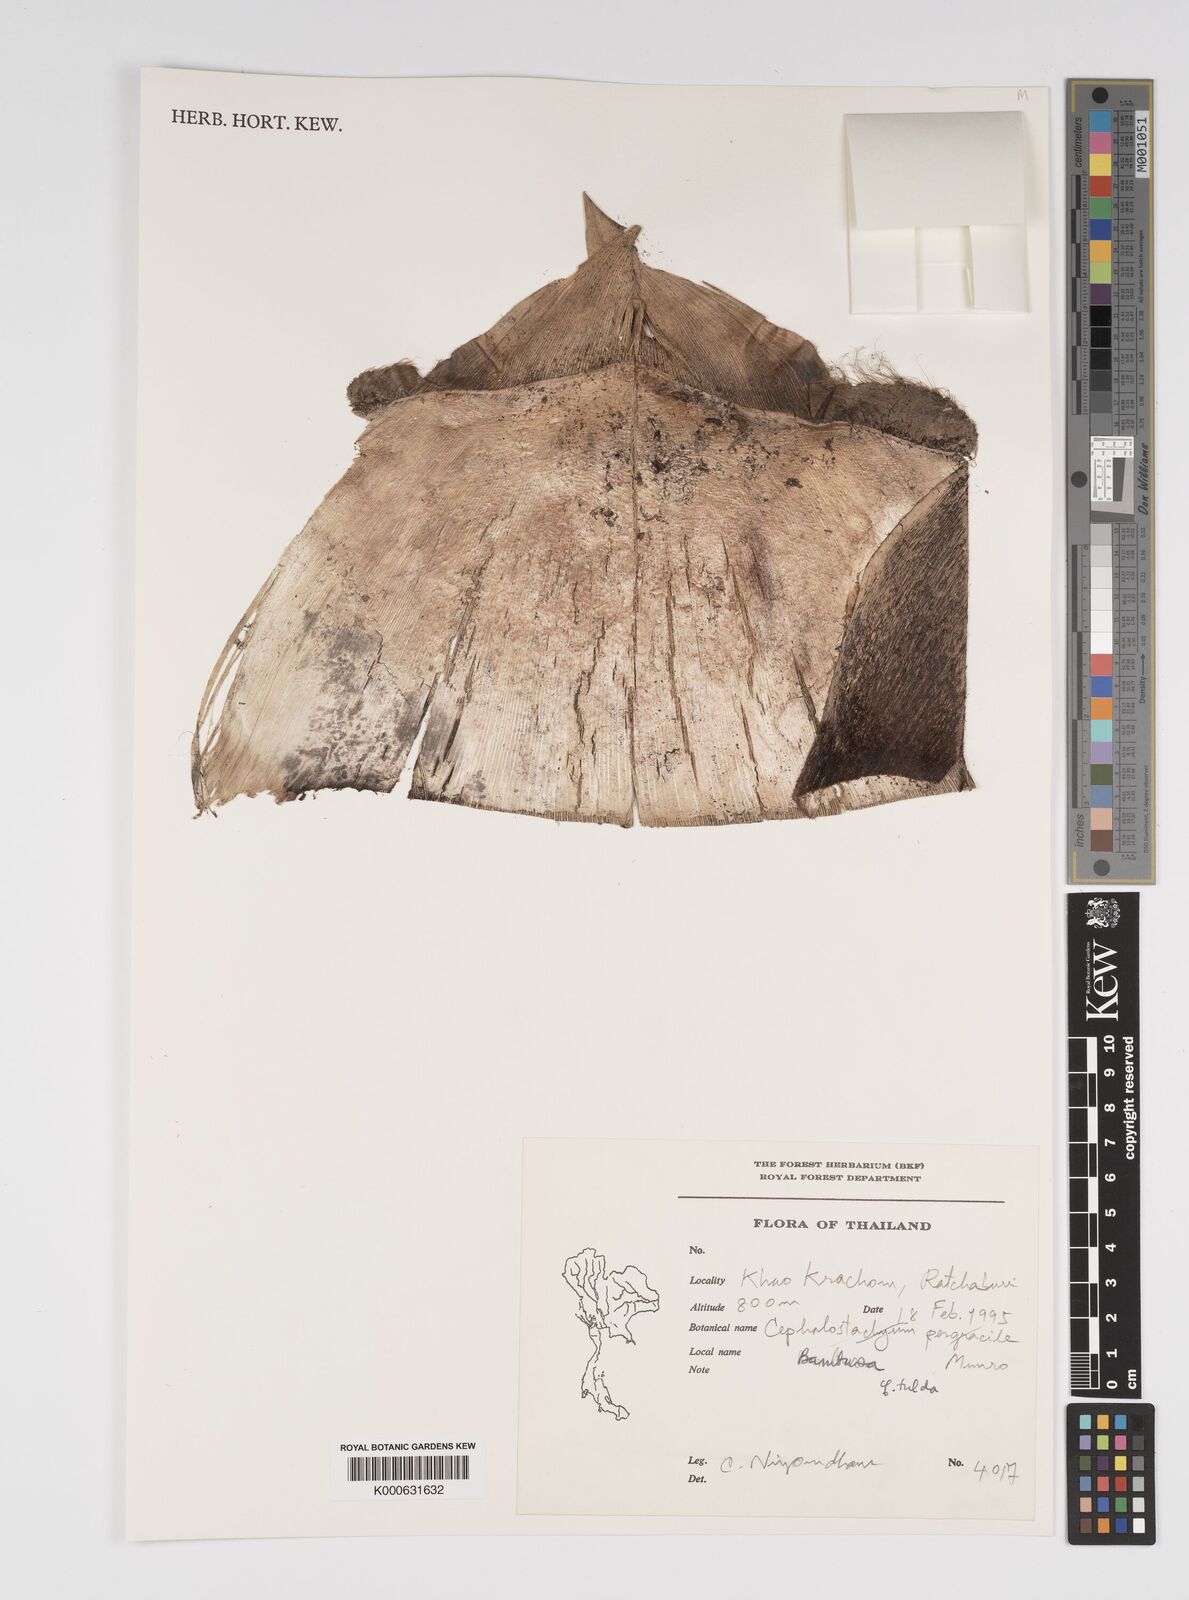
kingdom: Plantae
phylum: Tracheophyta
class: Liliopsida
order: Poales
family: Poaceae
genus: Bambusa
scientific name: Bambusa tulda
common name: Bengal bamboo
